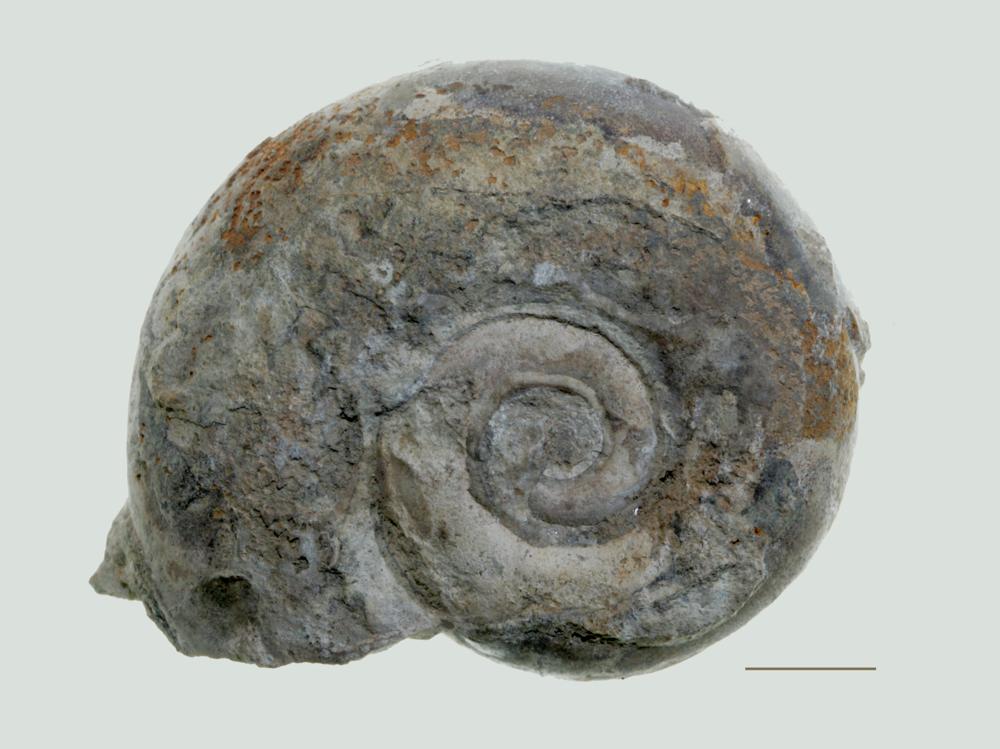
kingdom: Animalia
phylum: Mollusca
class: Gastropoda
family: Lesueurillidae
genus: Lesueurilla
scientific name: Lesueurilla Maclurea infundibulum
